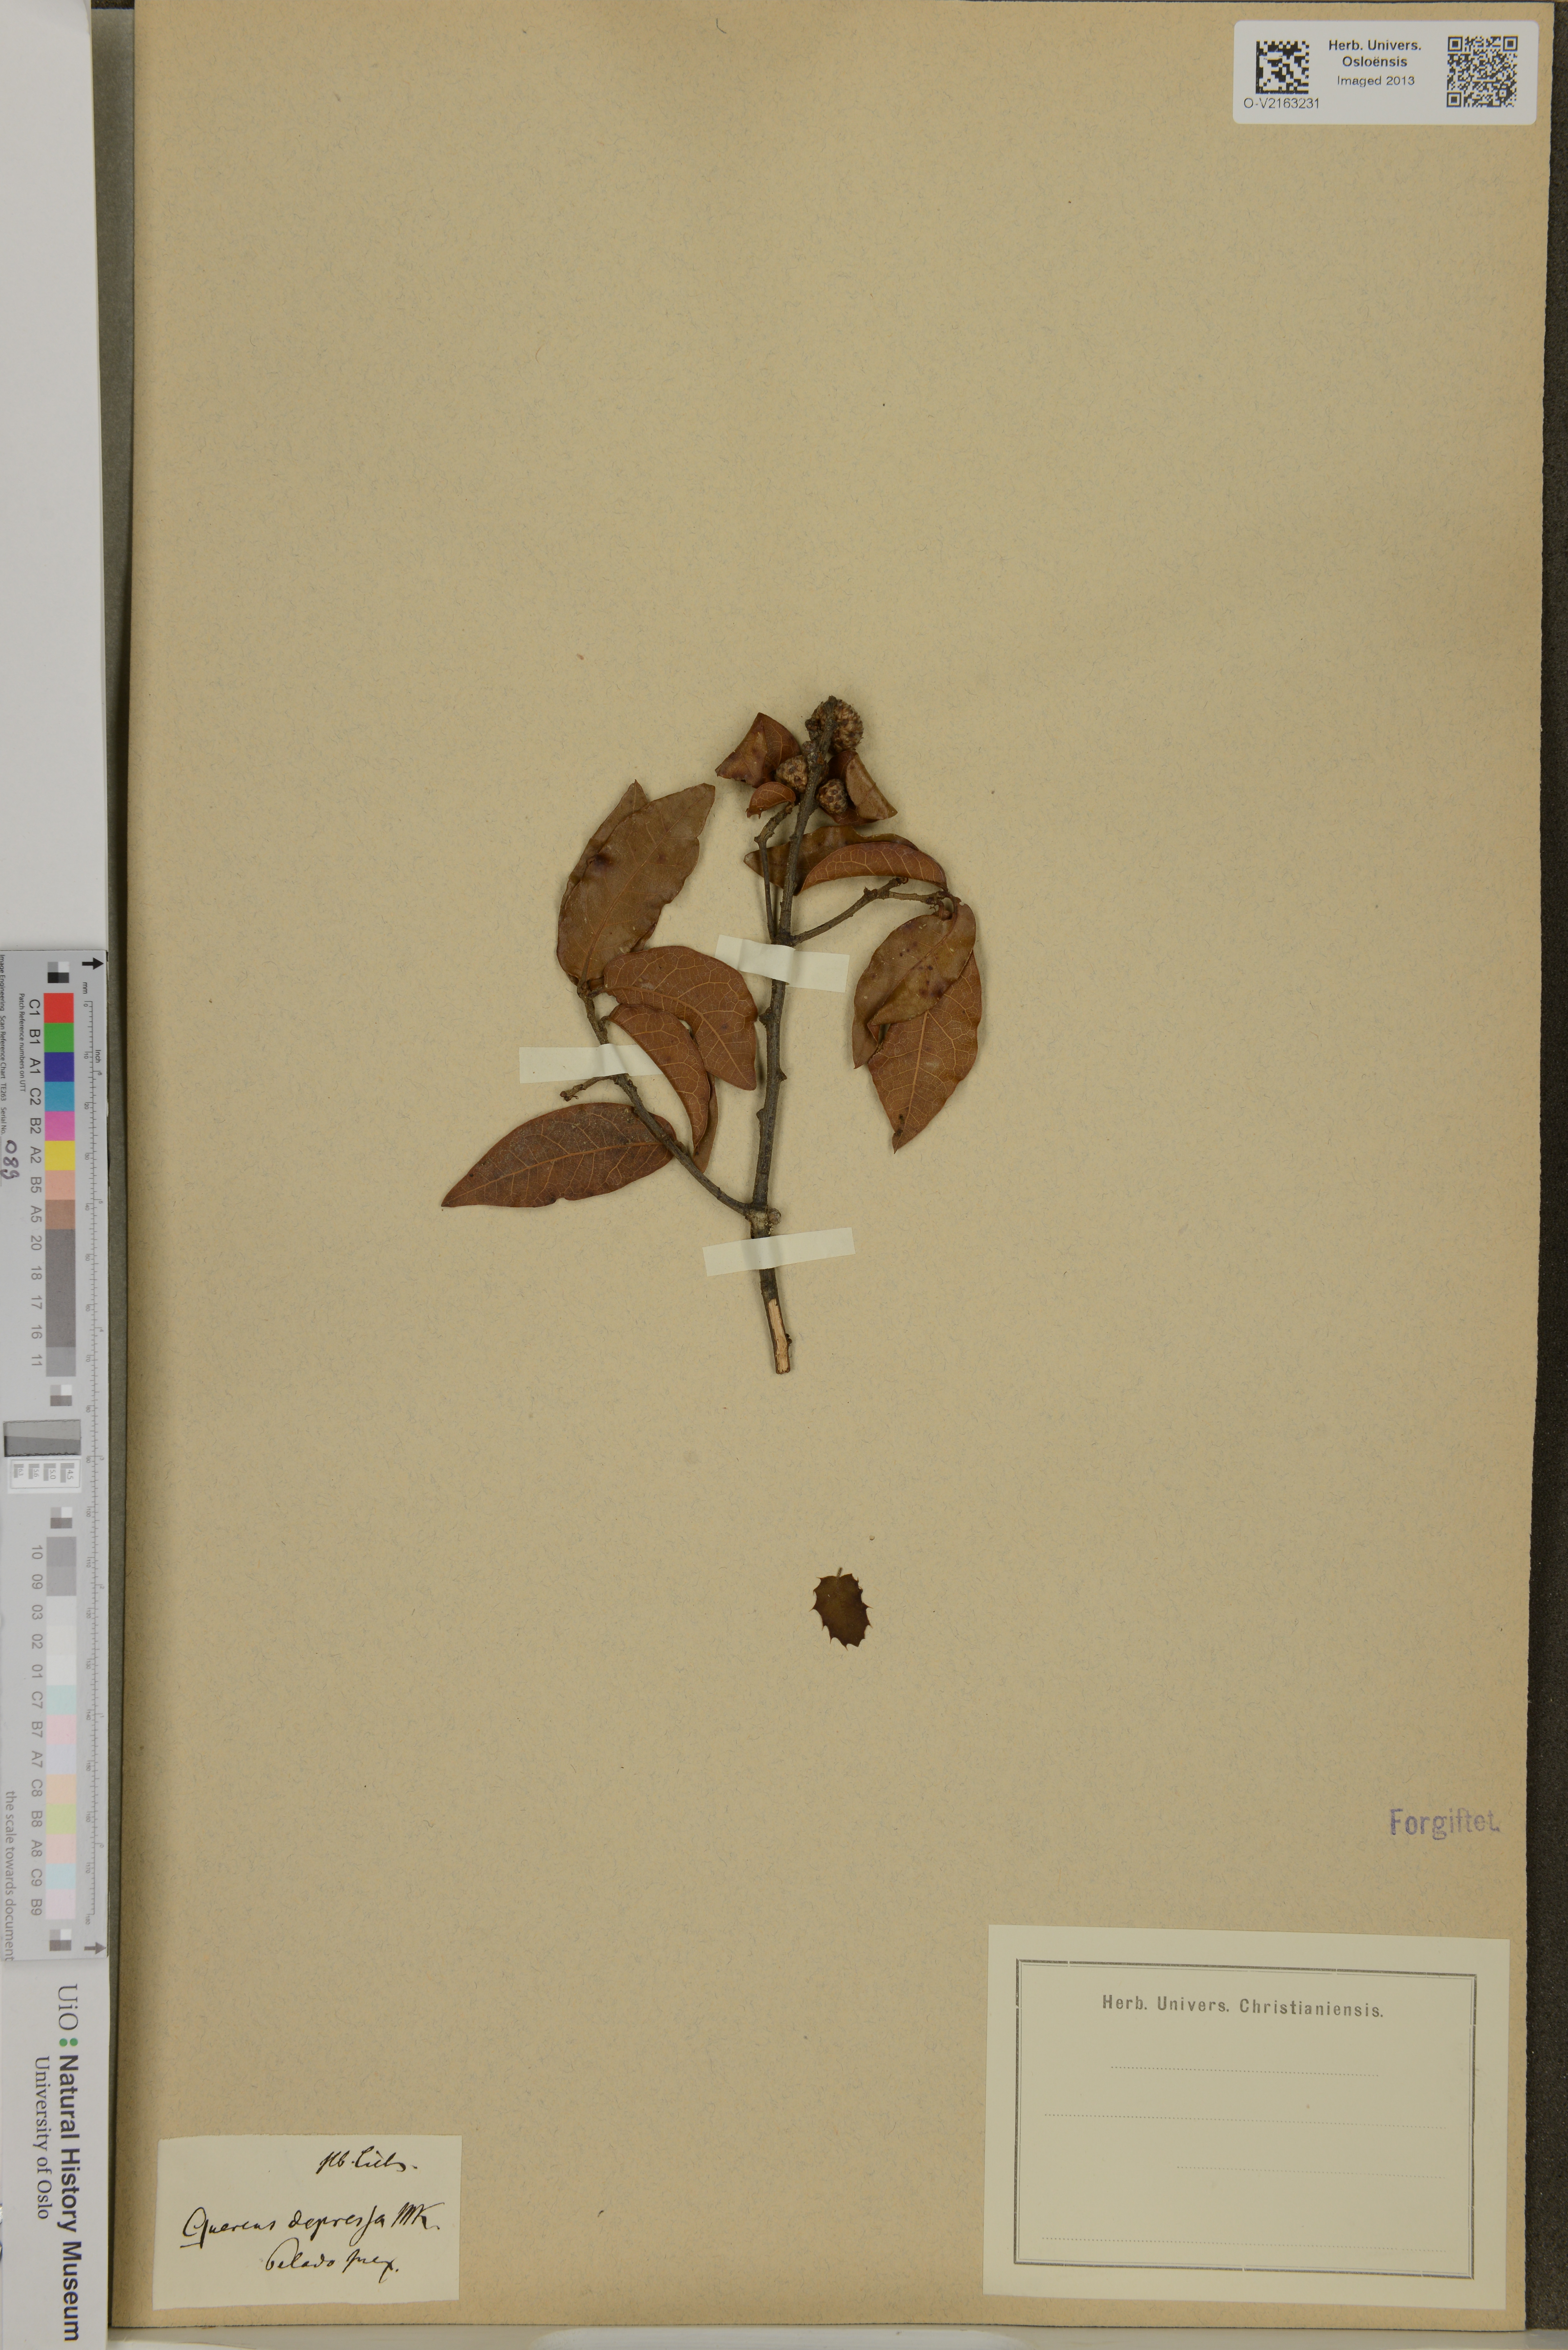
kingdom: Plantae
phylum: Tracheophyta
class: Magnoliopsida
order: Fagales
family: Fagaceae
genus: Quercus
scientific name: Quercus depressa
